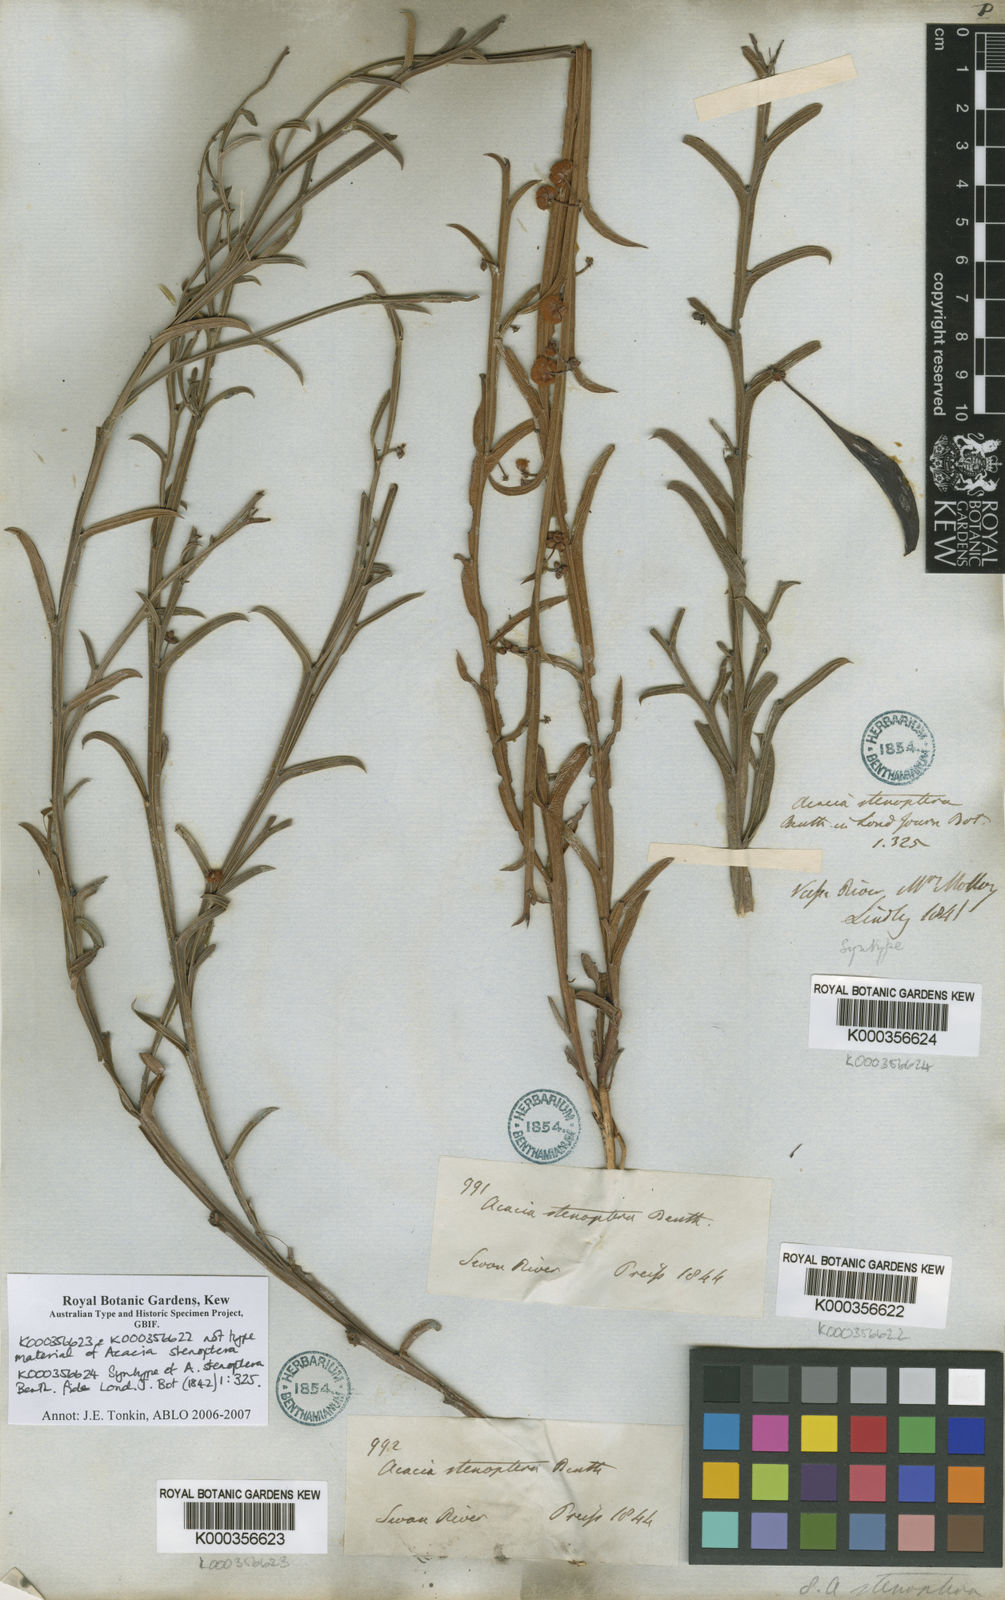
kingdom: Plantae
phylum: Tracheophyta
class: Magnoliopsida
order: Fabales
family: Fabaceae
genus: Acacia
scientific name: Acacia stenoptera
